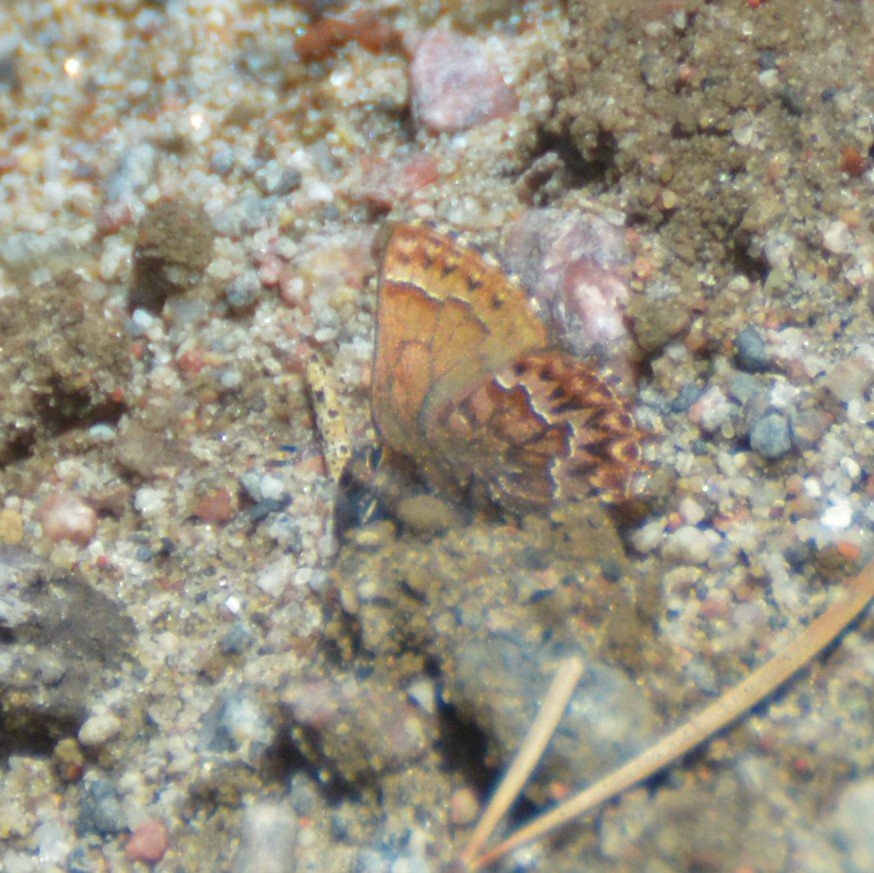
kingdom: Animalia
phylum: Arthropoda
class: Insecta
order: Lepidoptera
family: Lycaenidae
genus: Incisalia
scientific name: Incisalia eryphon
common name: Western Pine Elfin
